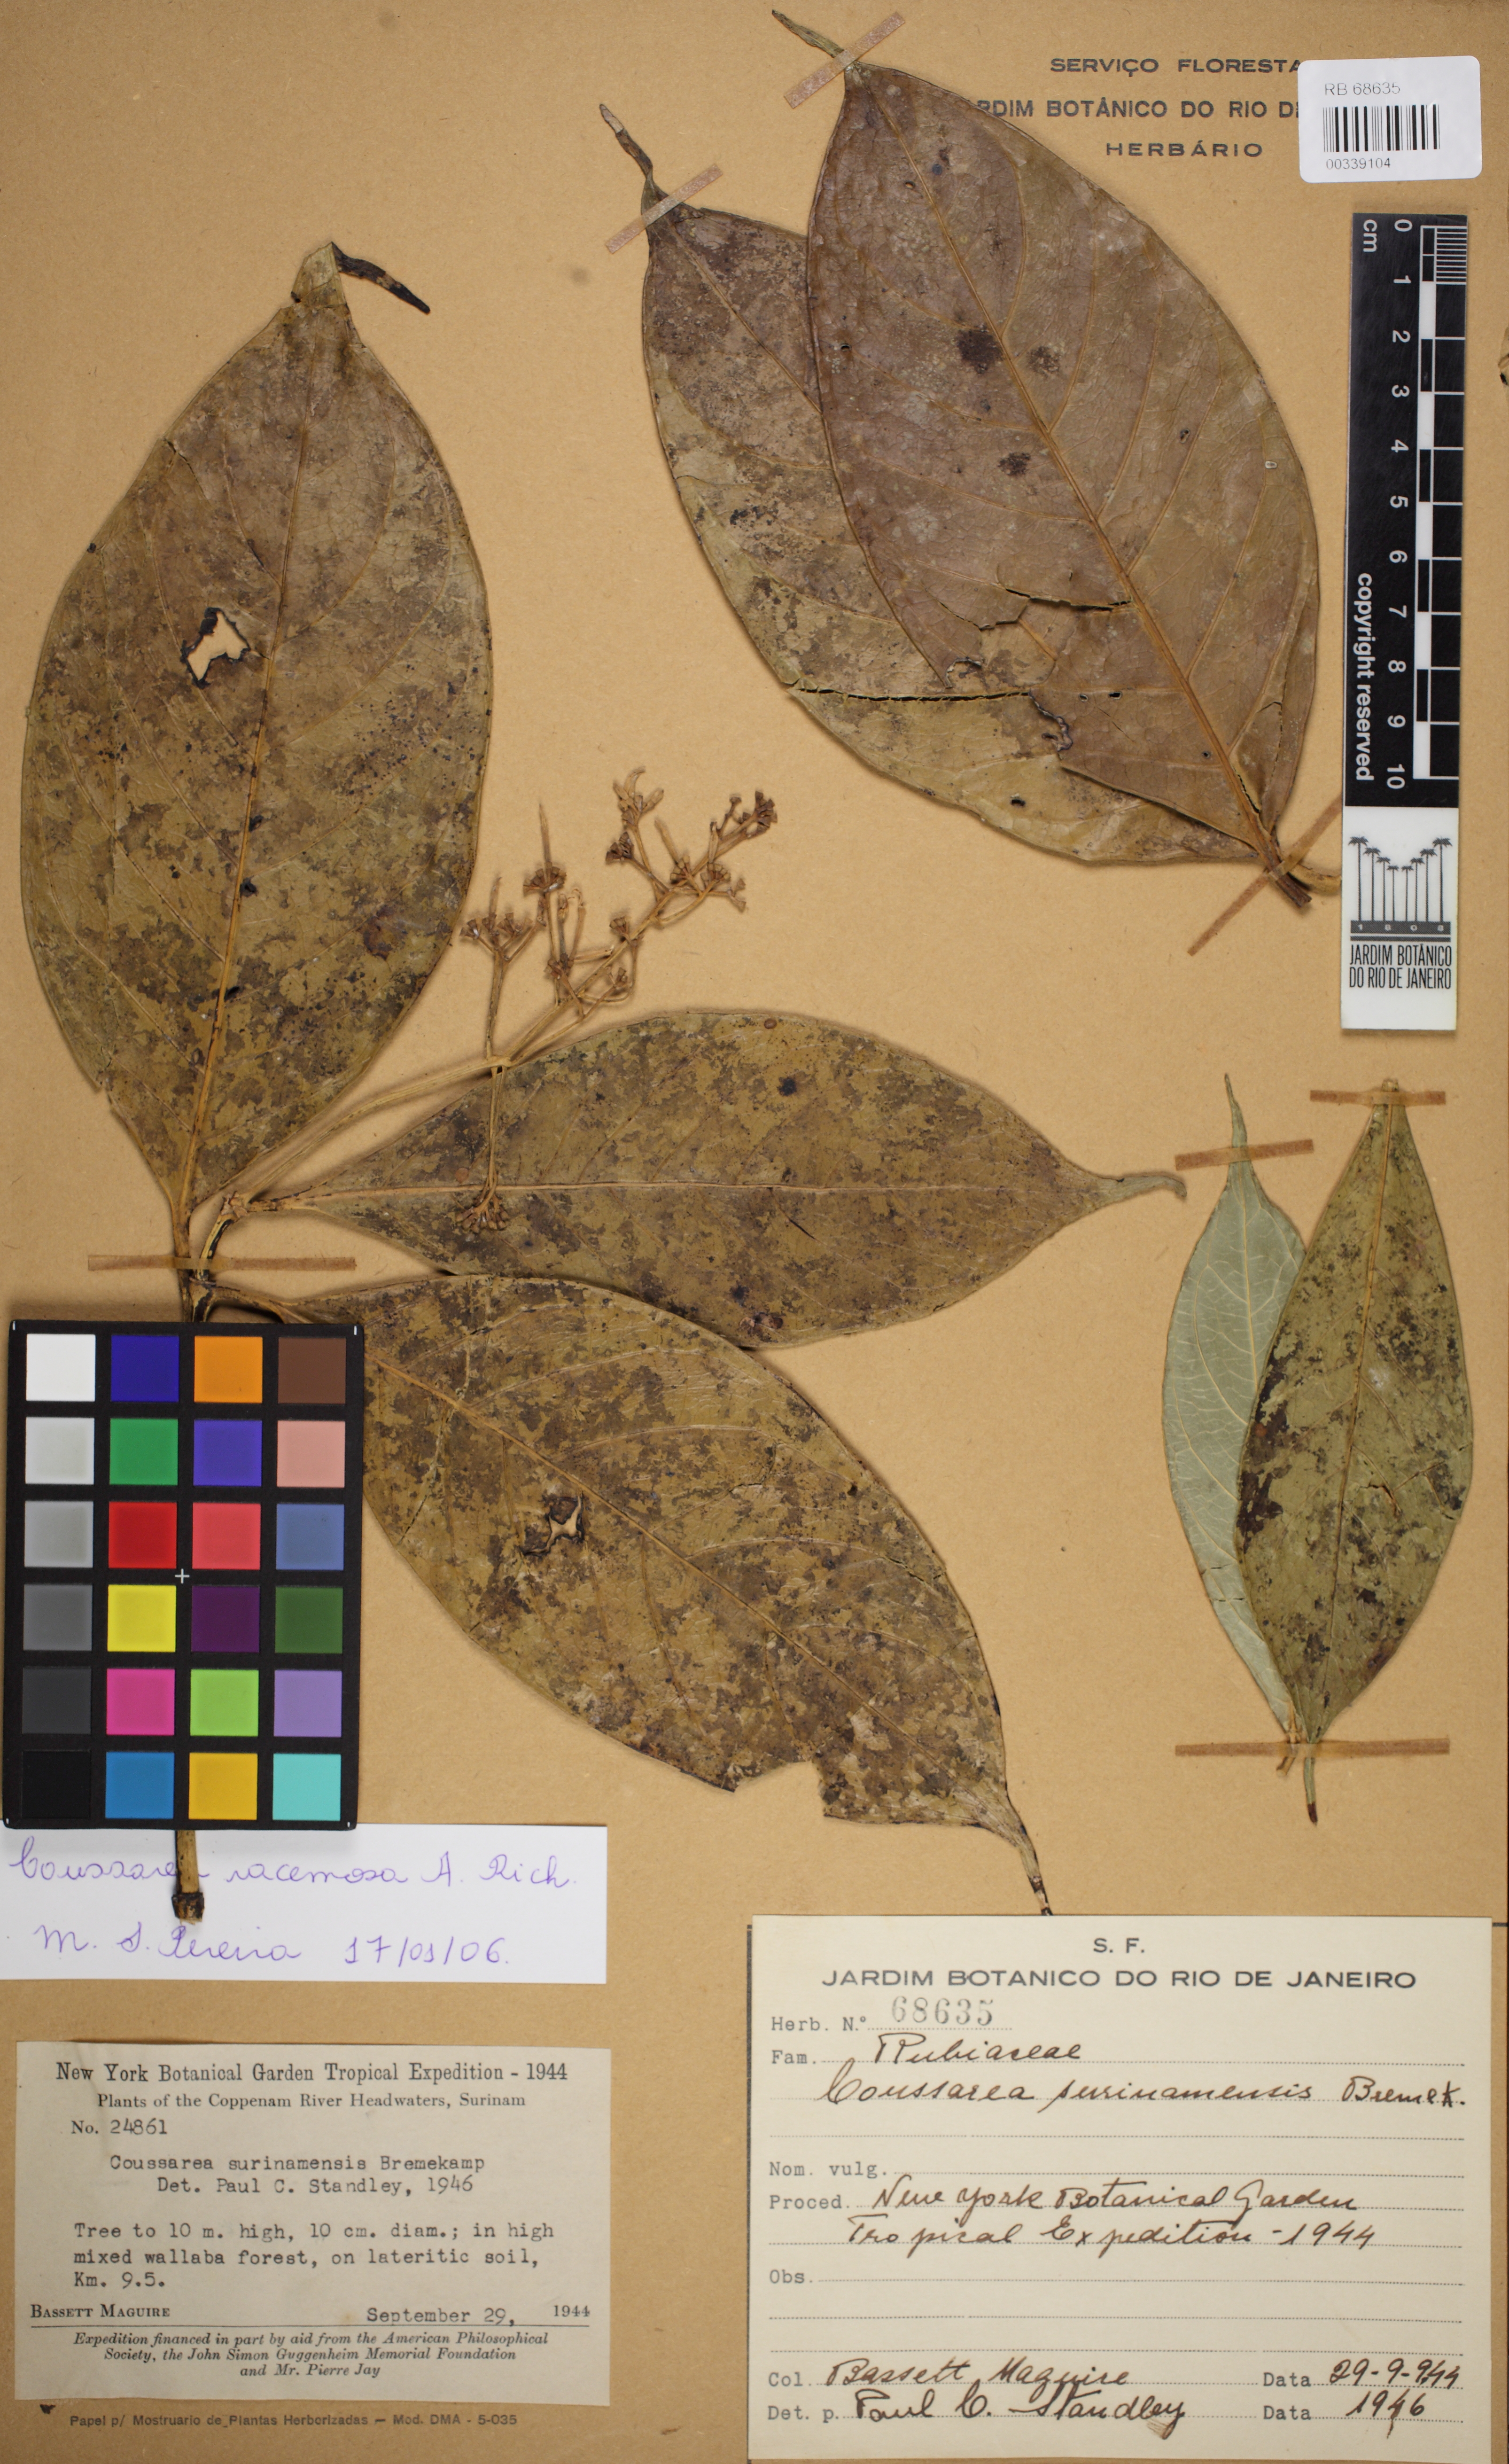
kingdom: Plantae
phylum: Tracheophyta
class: Magnoliopsida
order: Gentianales
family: Rubiaceae
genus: Coussarea
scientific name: Coussarea albescens
